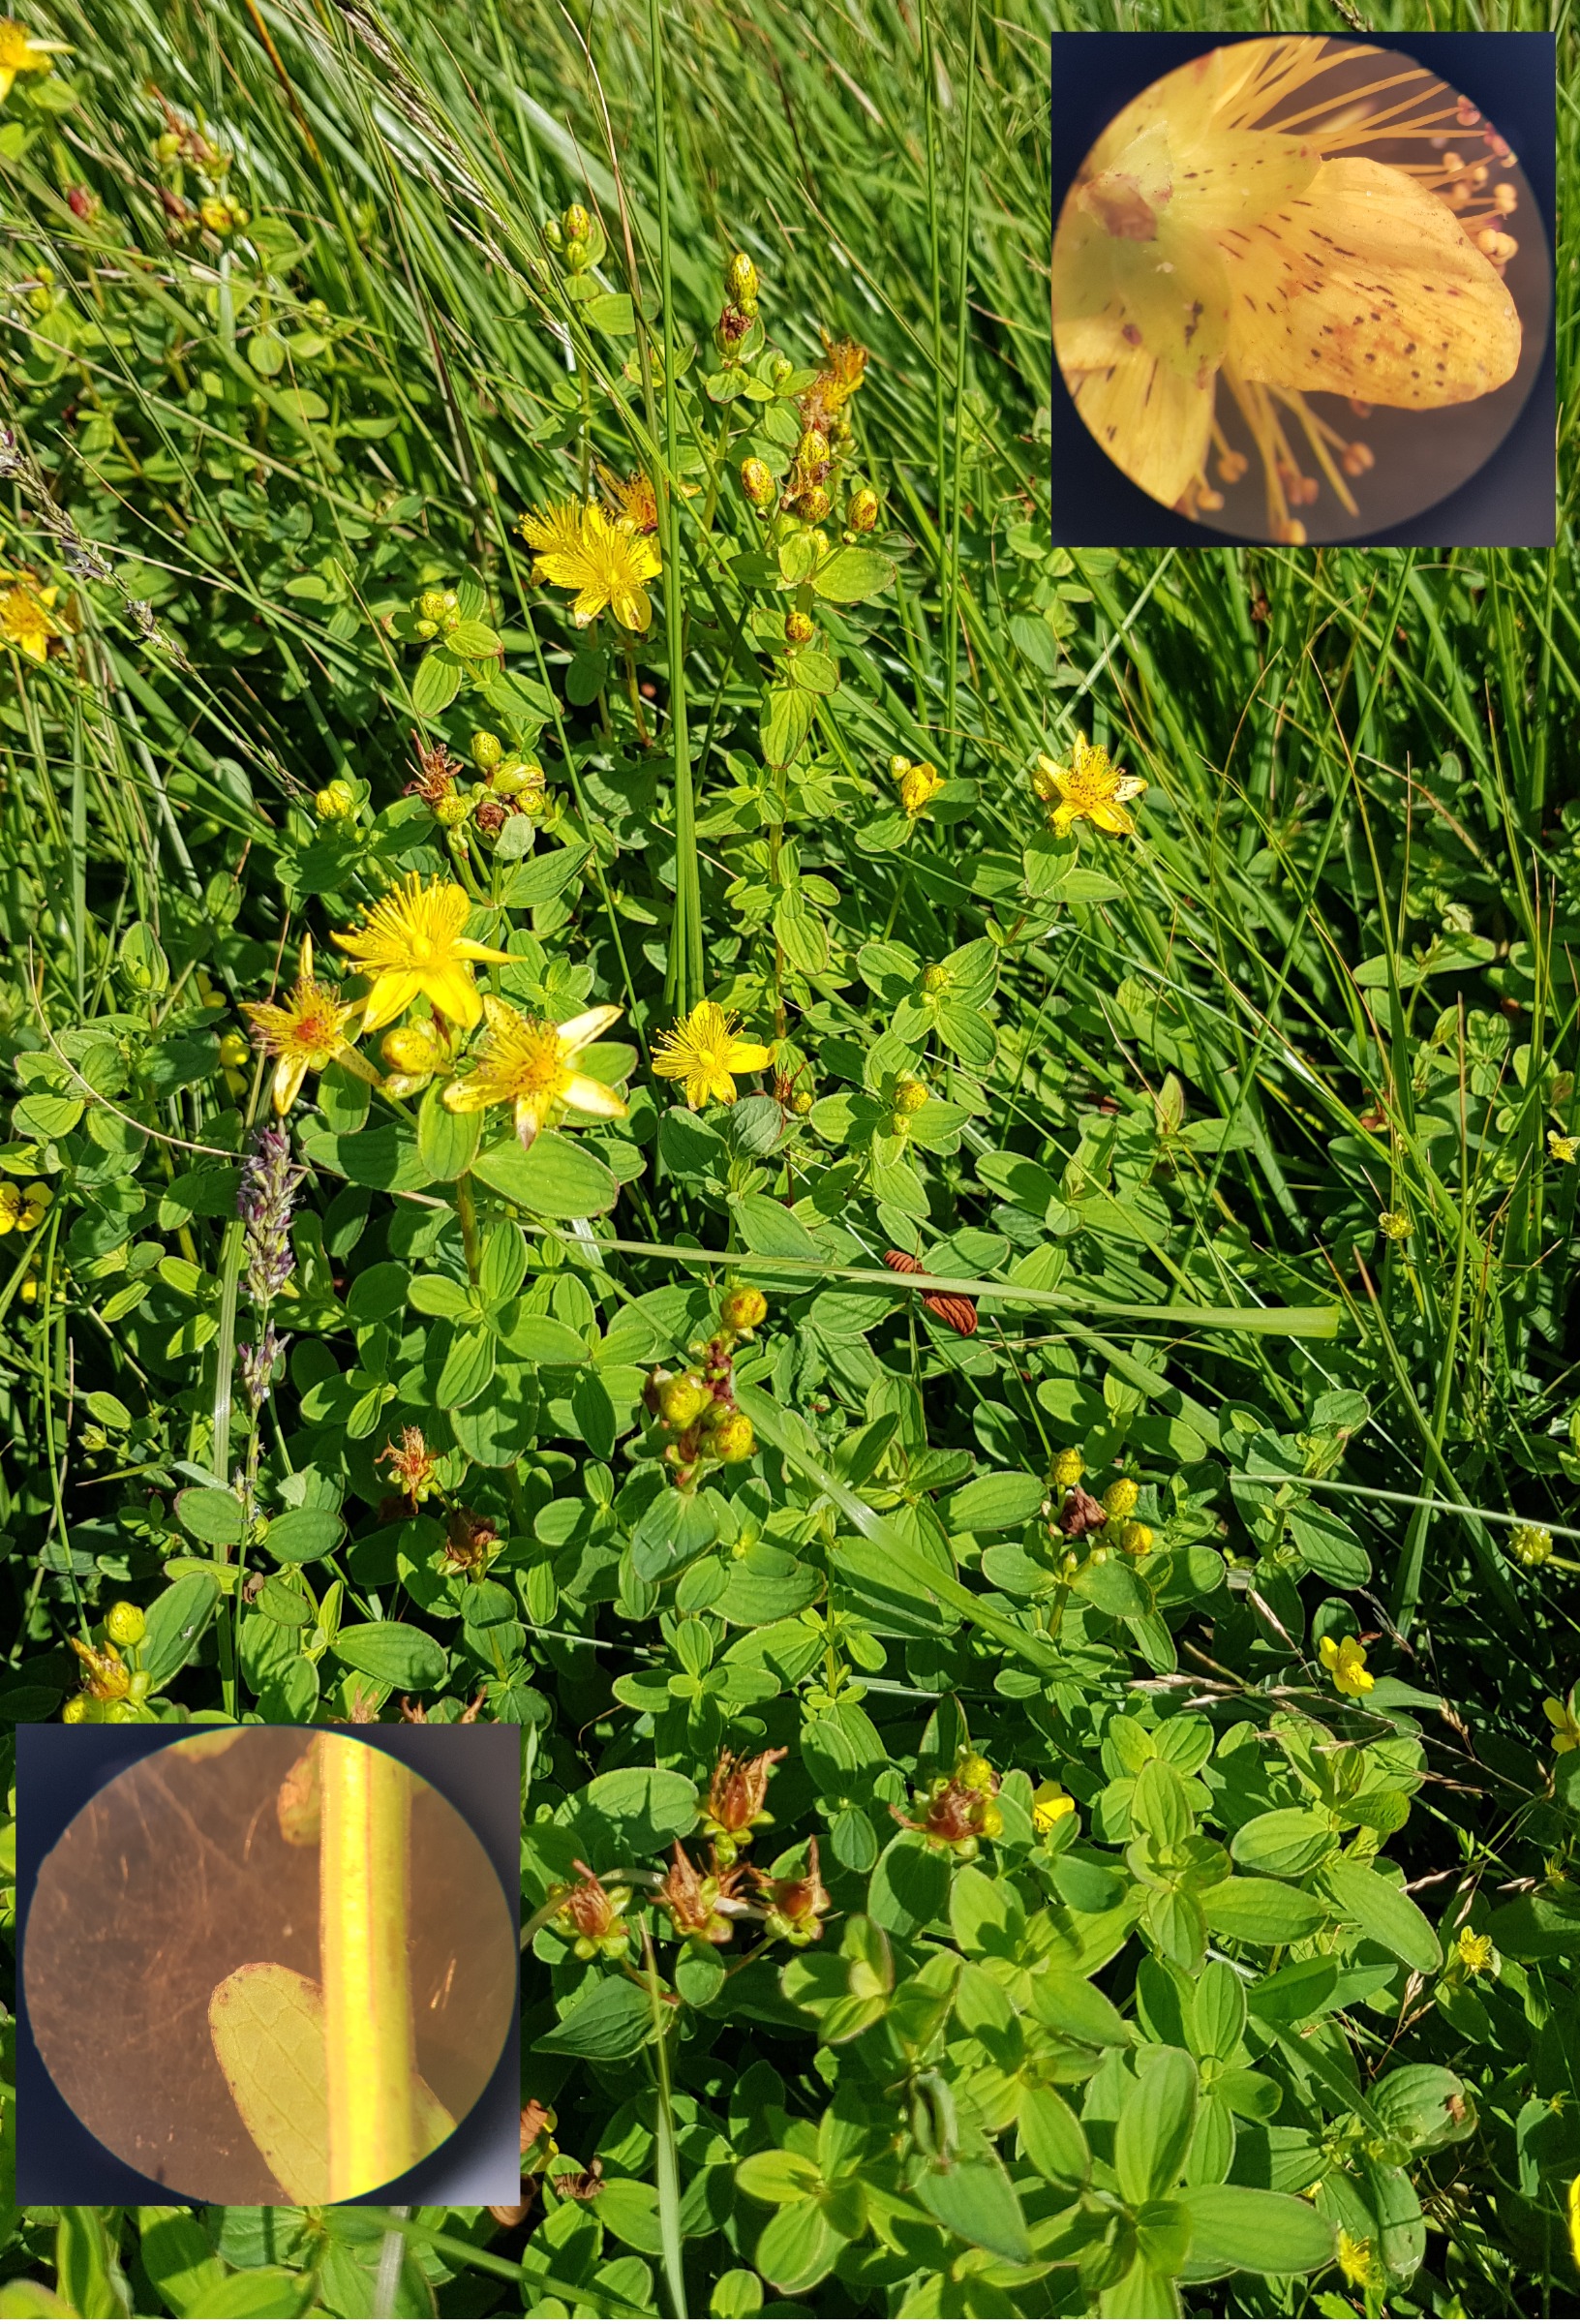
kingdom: Plantae
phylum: Tracheophyta
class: Magnoliopsida
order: Malpighiales
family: Hypericaceae
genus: Hypericum
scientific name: Hypericum maculatum
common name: Kantet perikon
